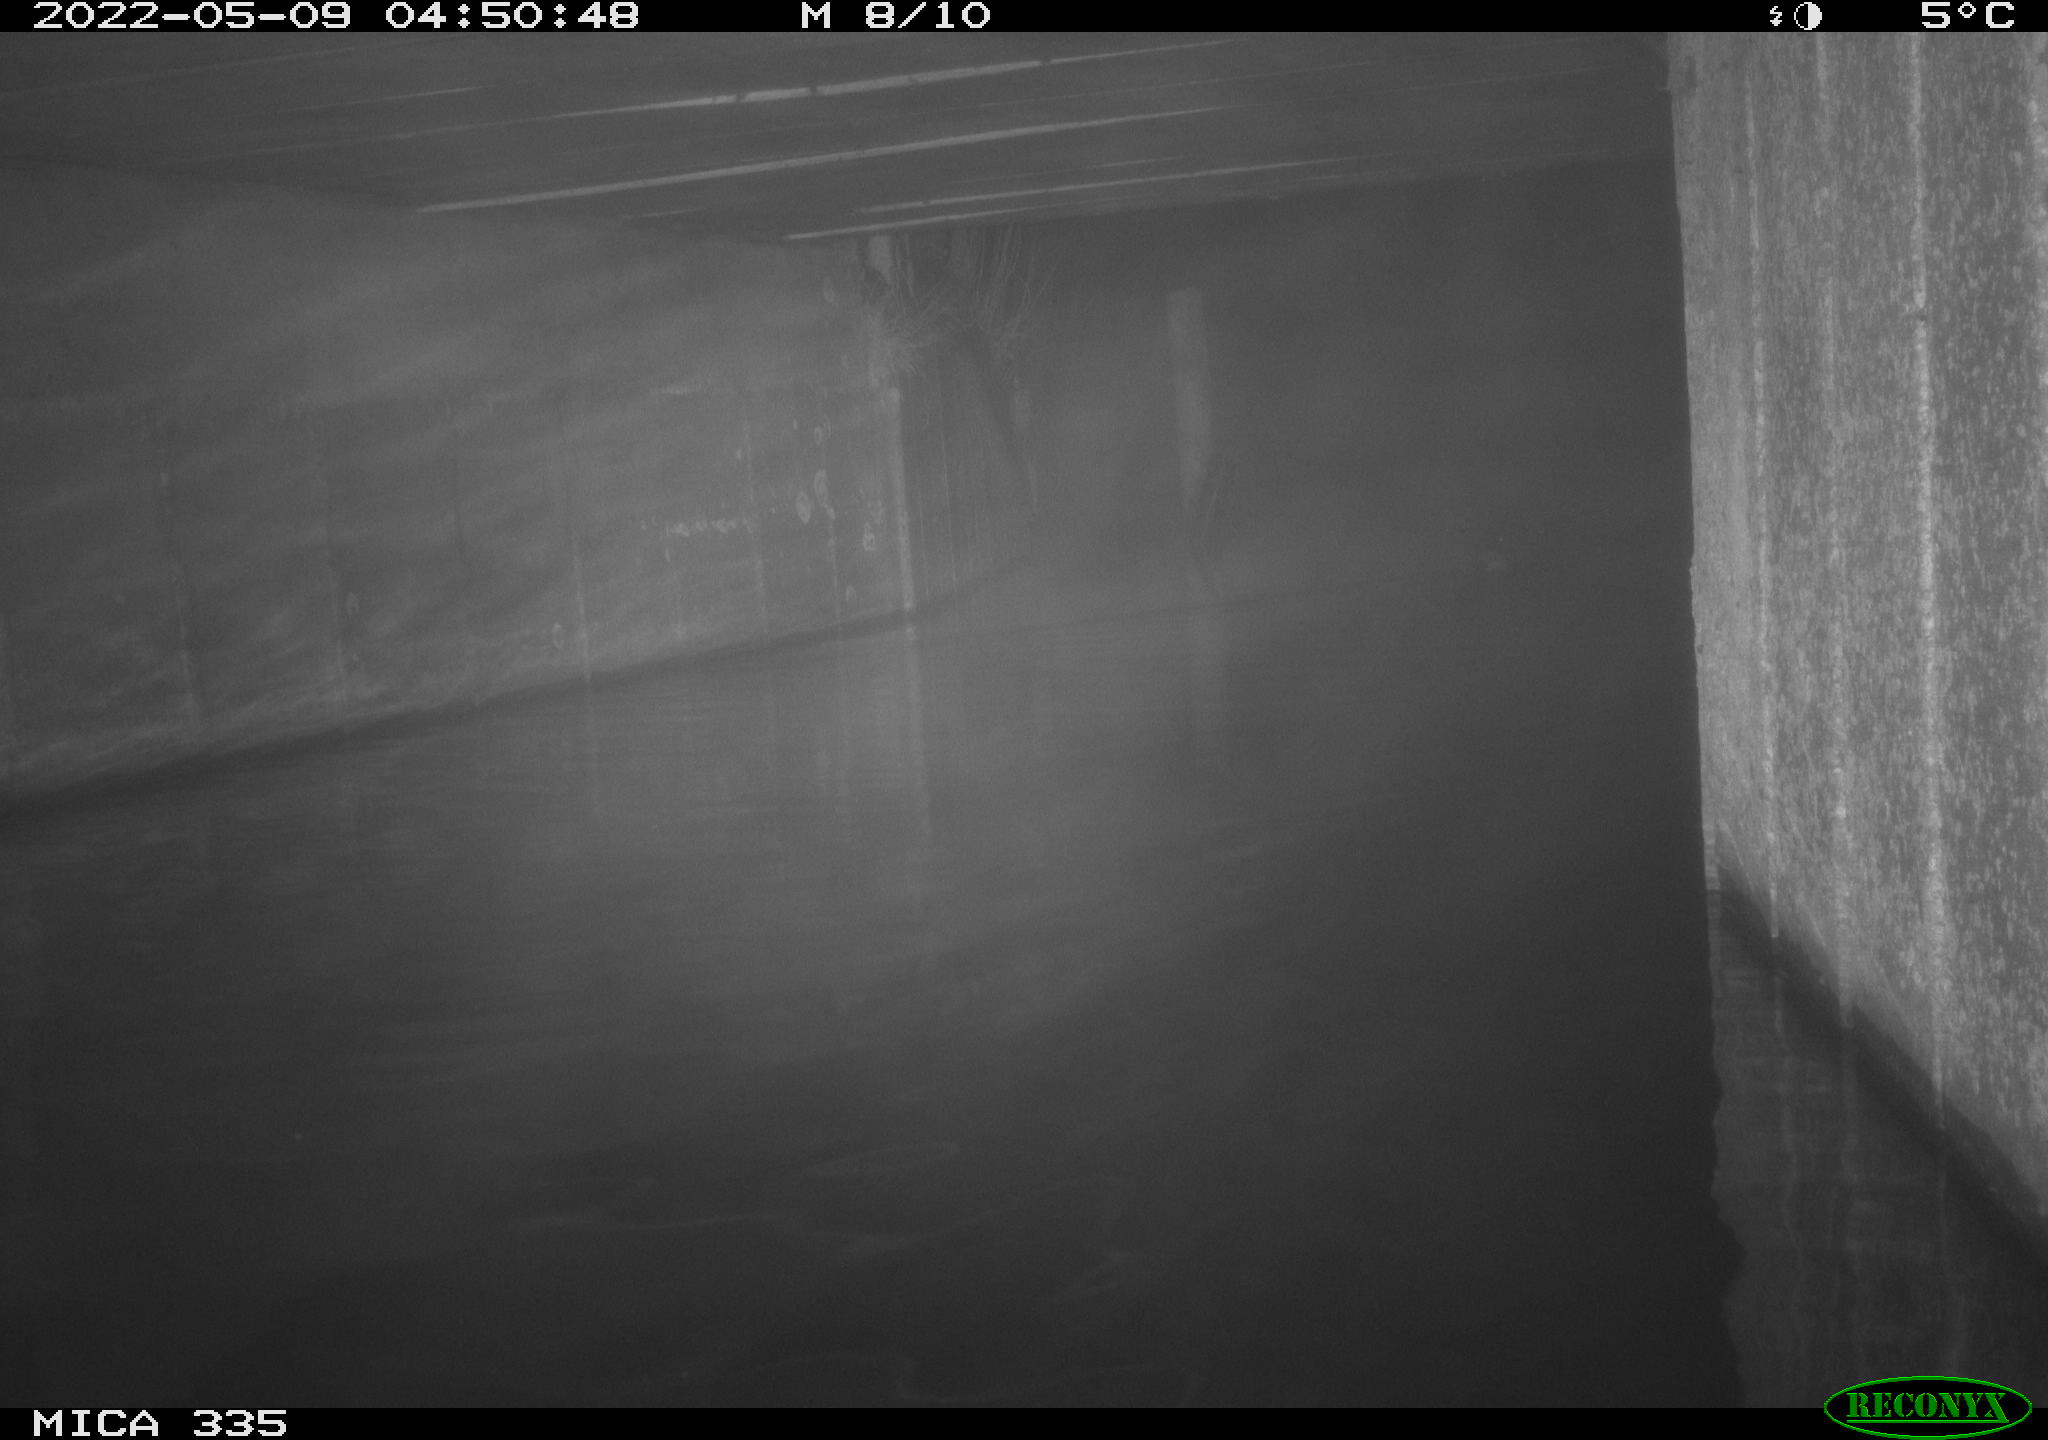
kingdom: Animalia
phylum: Chordata
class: Aves
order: Anseriformes
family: Anatidae
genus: Anas
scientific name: Anas platyrhynchos
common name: Mallard
